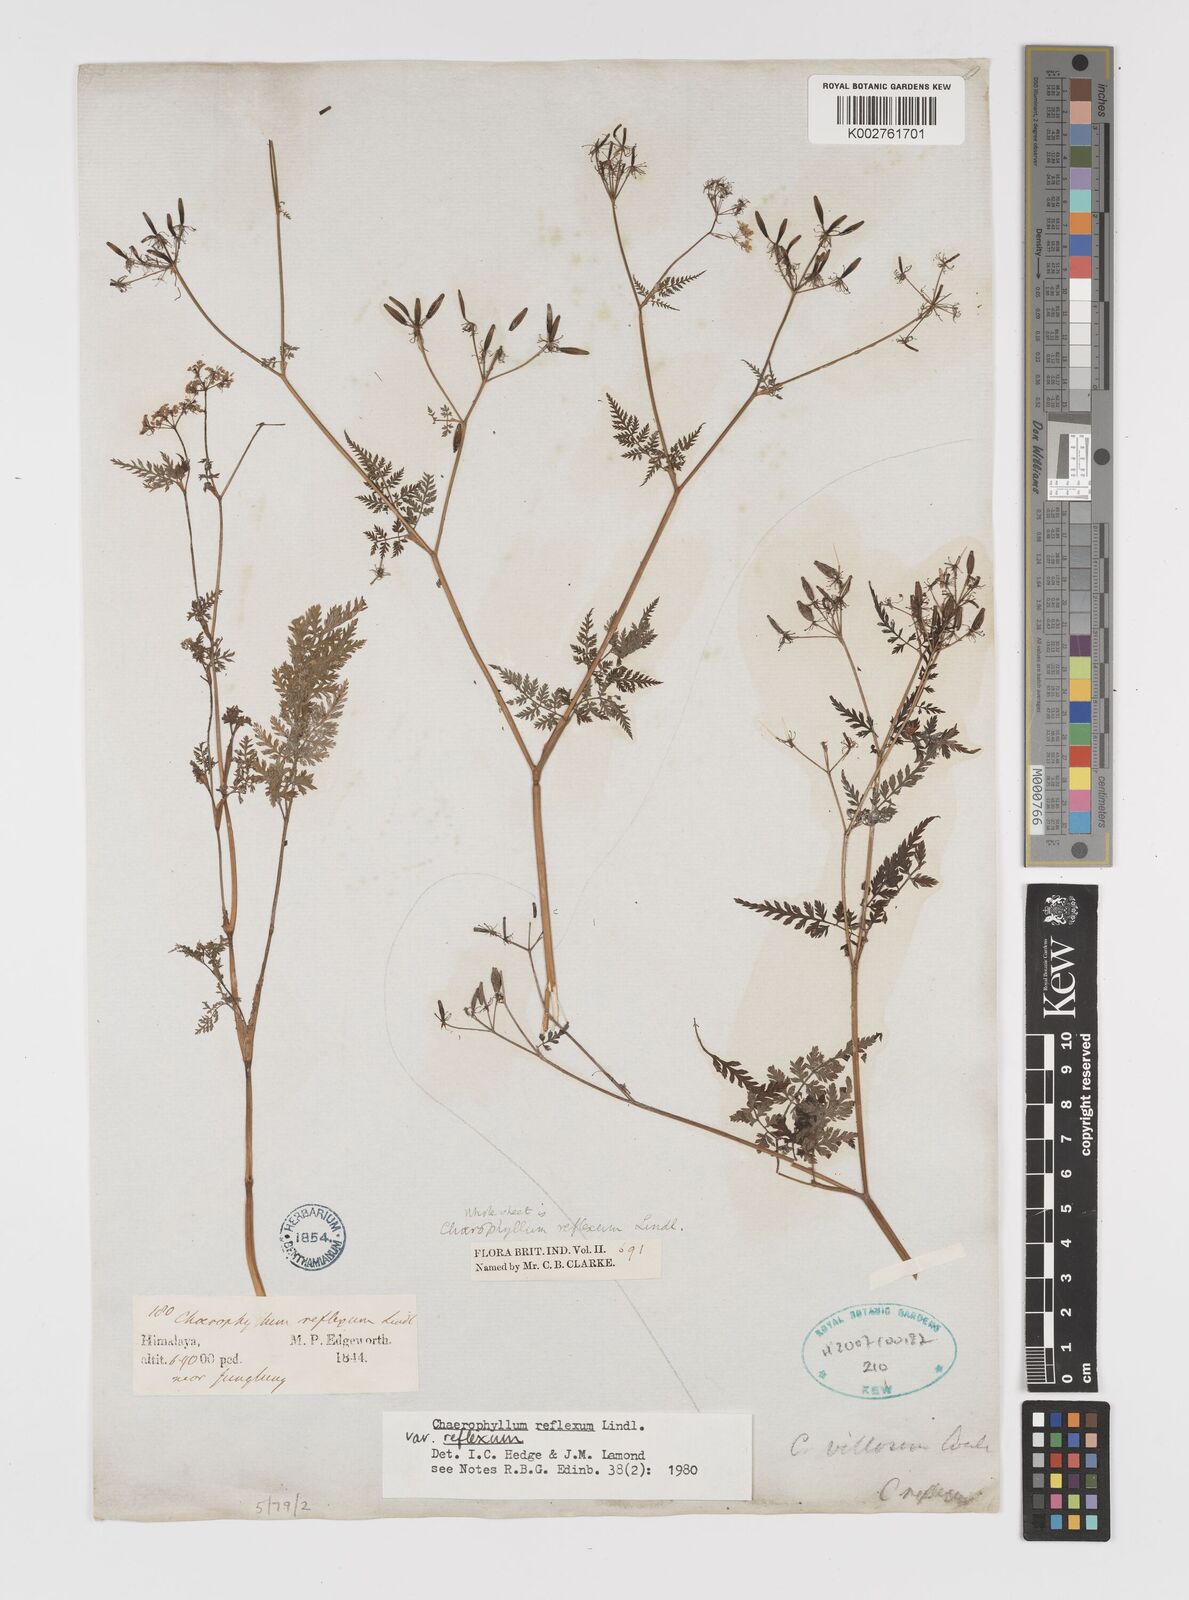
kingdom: Plantae
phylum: Tracheophyta
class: Magnoliopsida
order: Apiales
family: Apiaceae
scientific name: Apiaceae
